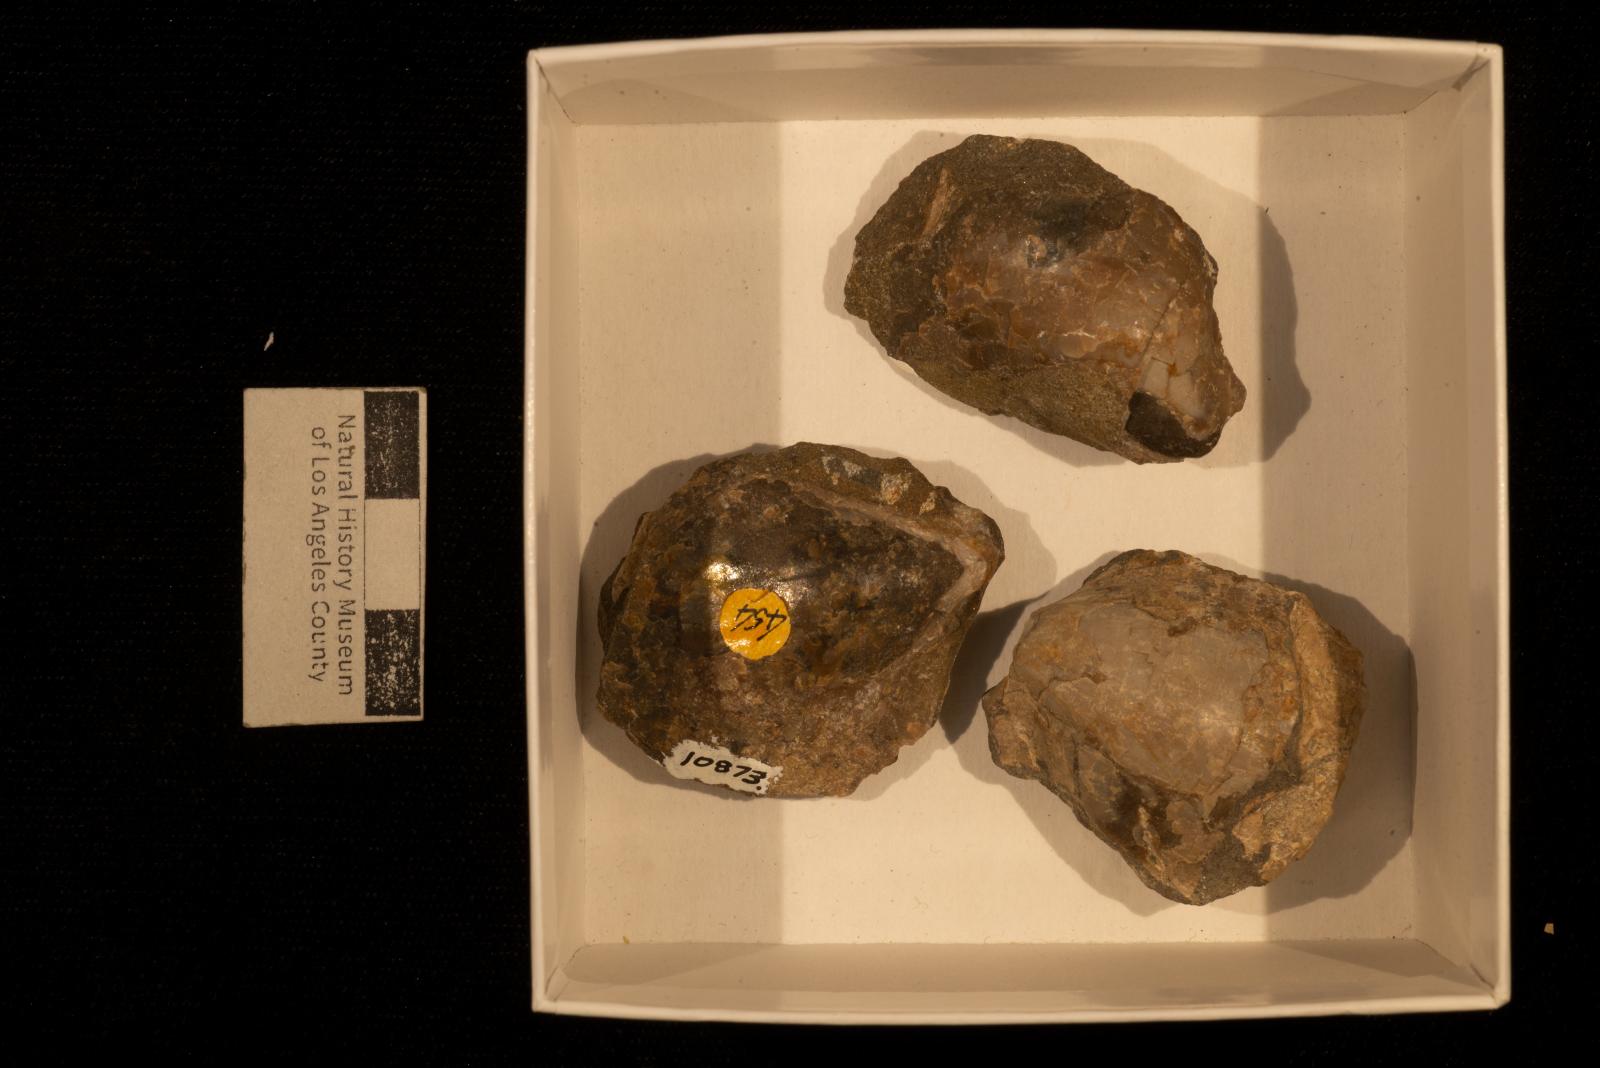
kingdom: Animalia
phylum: Mollusca
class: Bivalvia
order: Ostreida
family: Pteriidae
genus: Pteria
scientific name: Pteria pellucida
